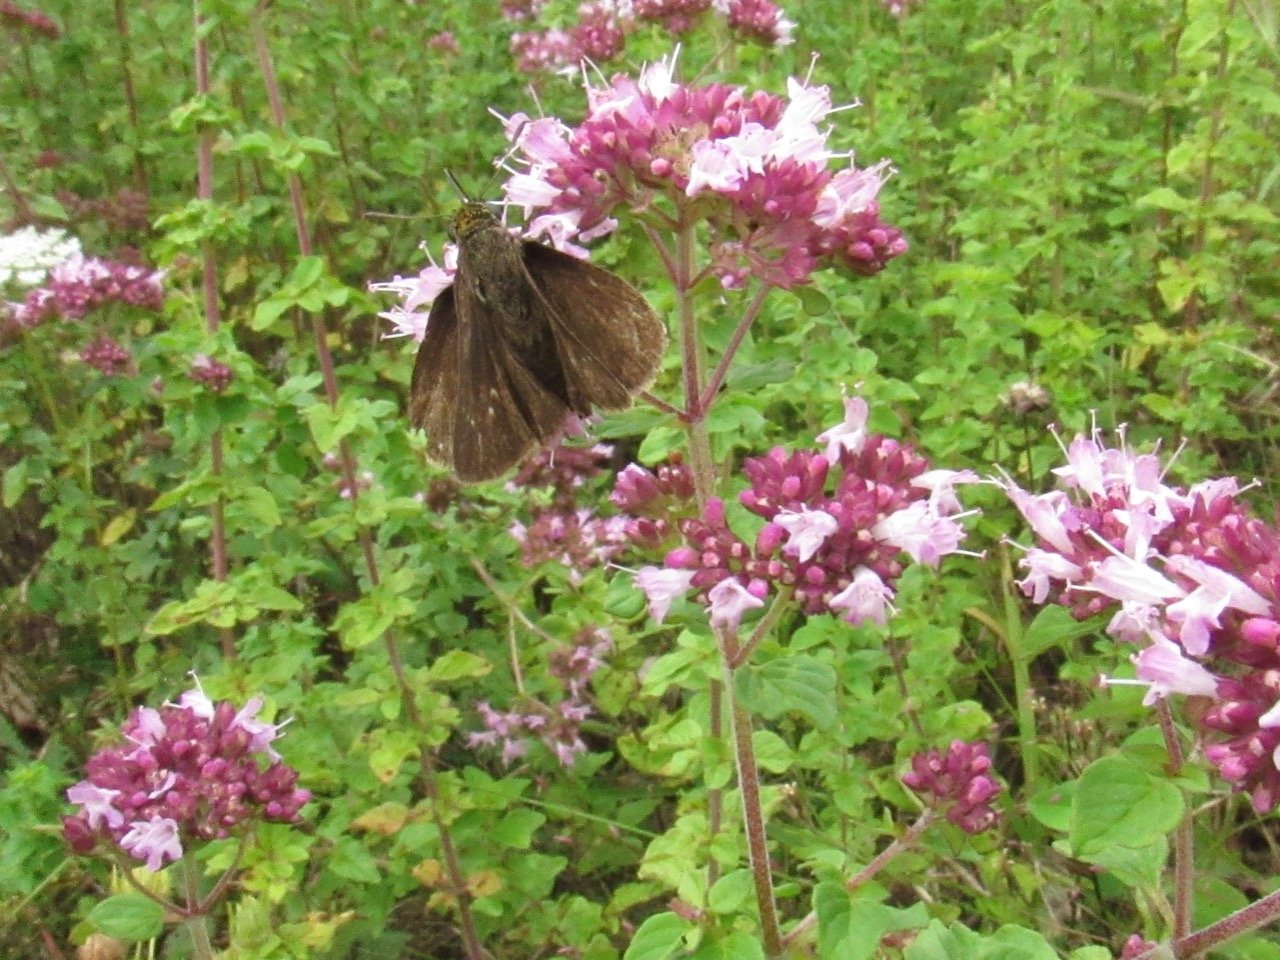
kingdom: Animalia
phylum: Arthropoda
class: Insecta
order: Lepidoptera
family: Hesperiidae
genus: Euphyes
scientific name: Euphyes vestris
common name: Dun Skipper
